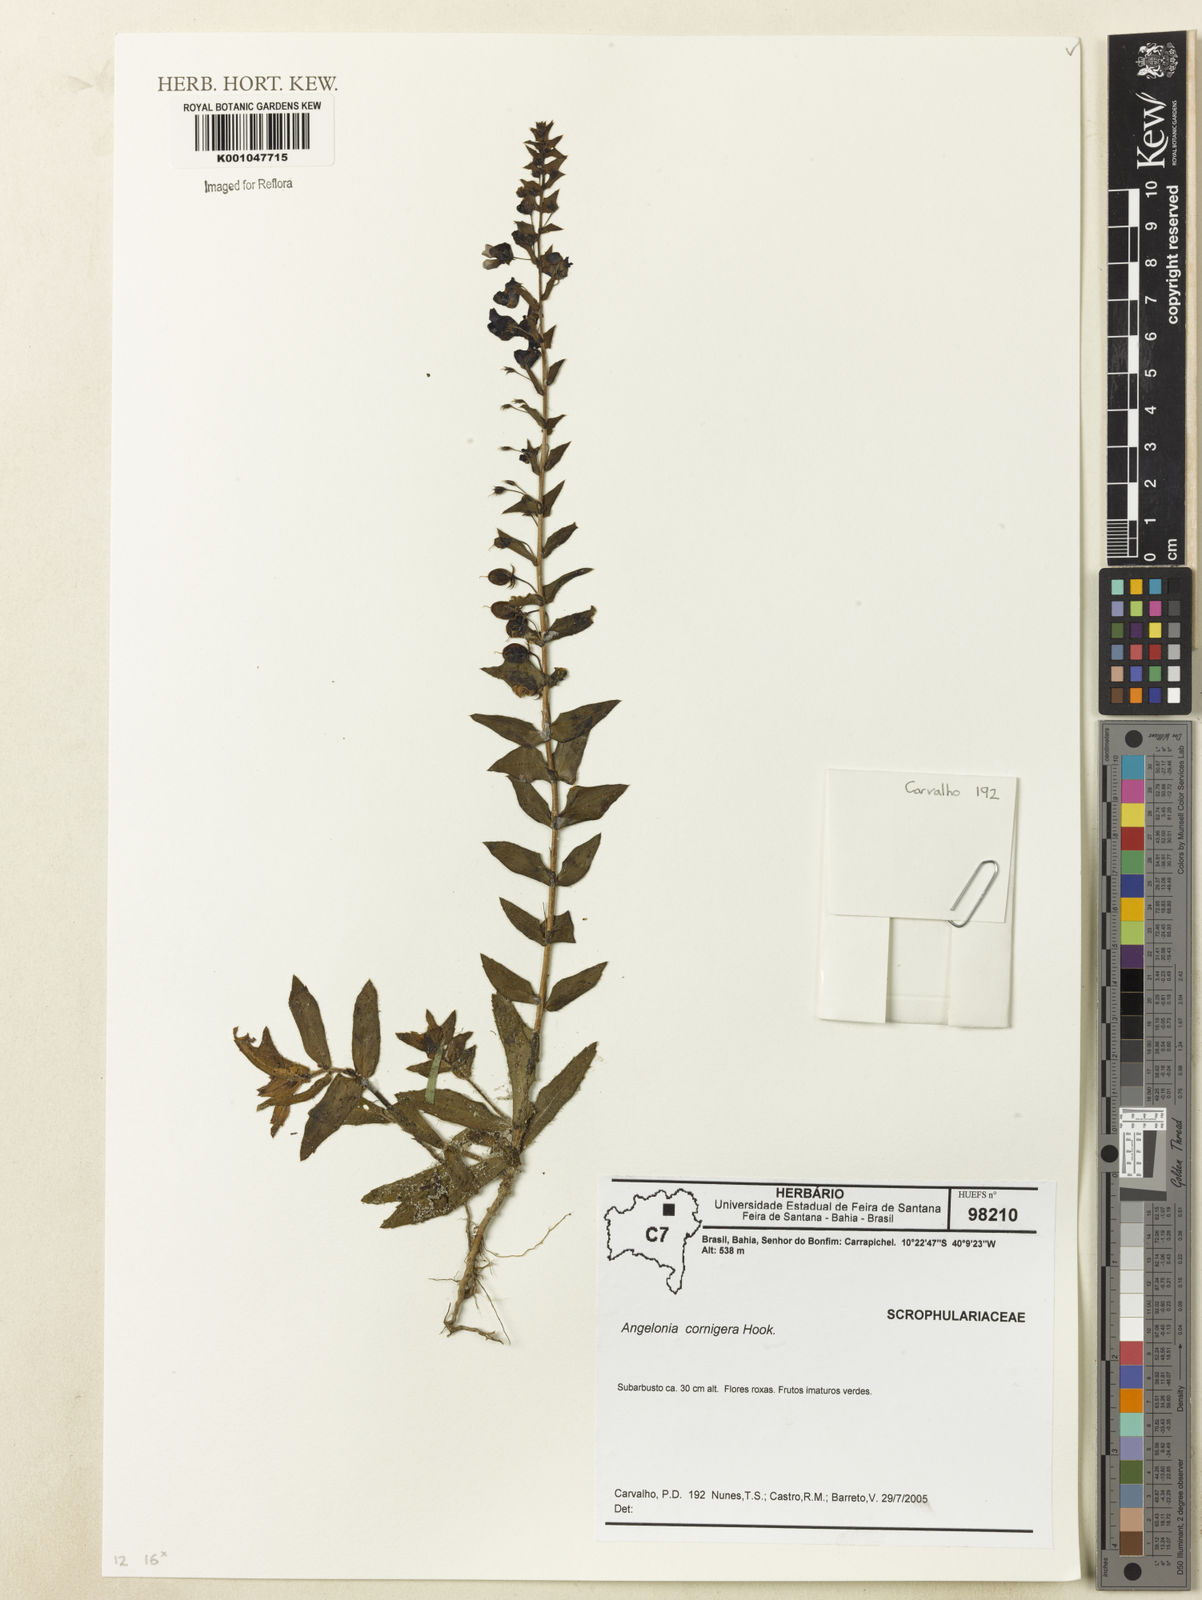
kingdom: Plantae
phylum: Tracheophyta
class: Magnoliopsida
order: Lamiales
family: Plantaginaceae
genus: Angelonia
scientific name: Angelonia cornigera
